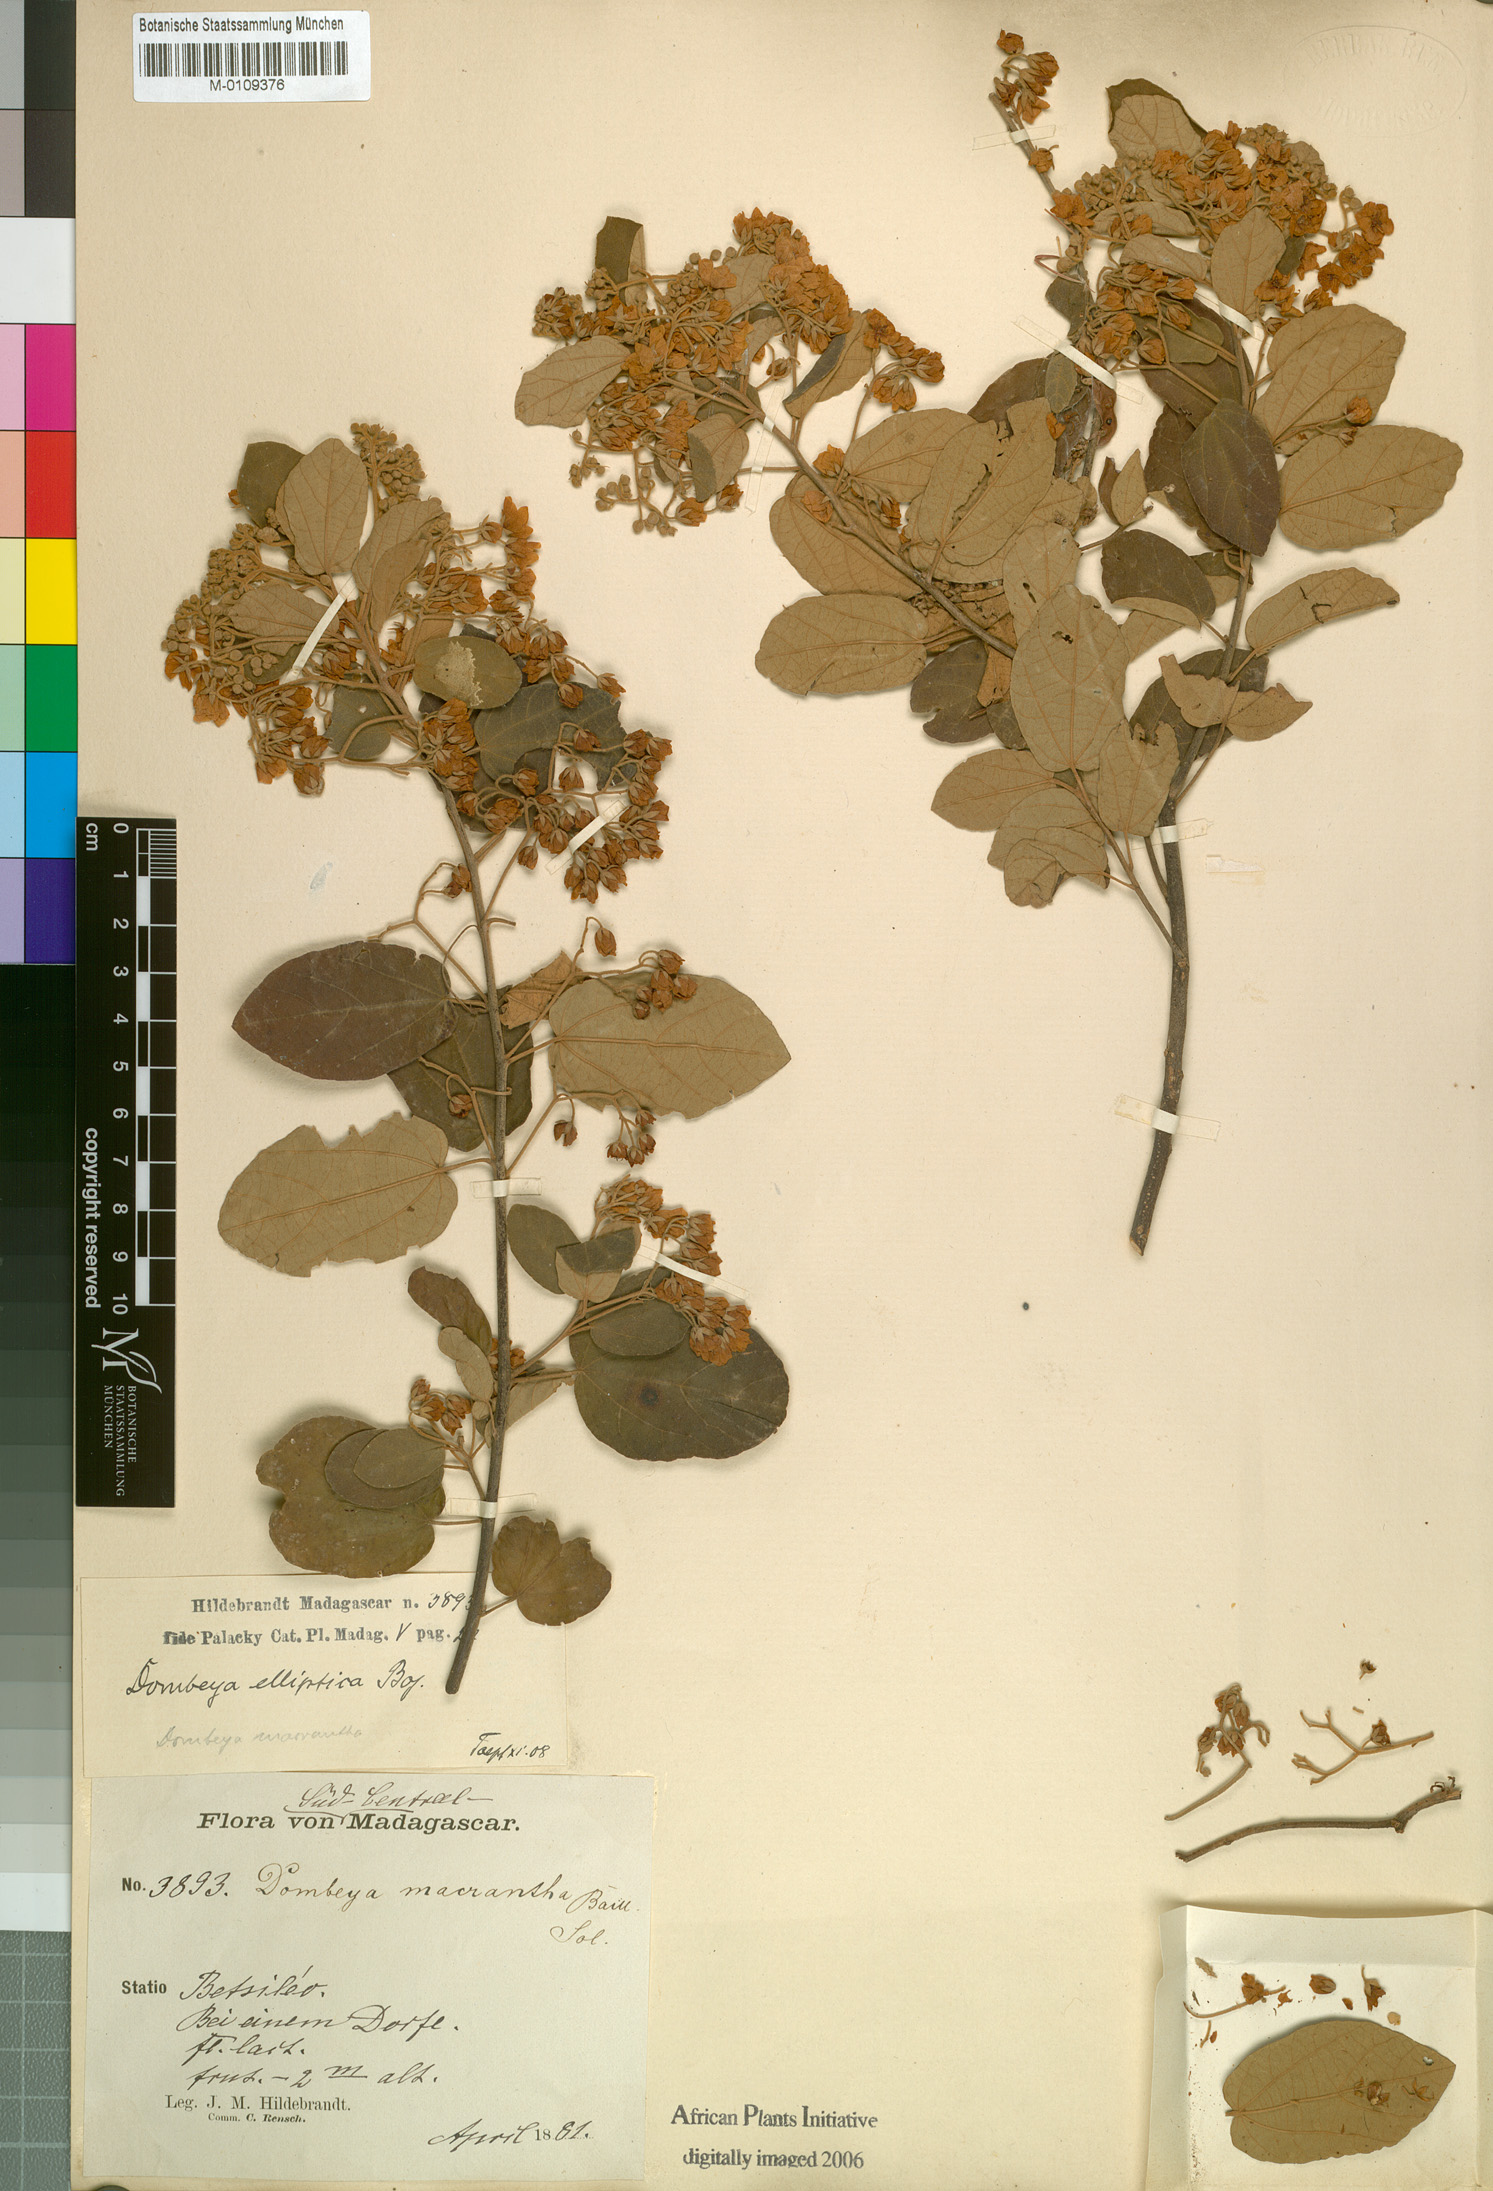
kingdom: Plantae
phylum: Tracheophyta
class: Magnoliopsida
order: Malvales
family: Malvaceae
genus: Dombeya
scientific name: Dombeya elliptica
